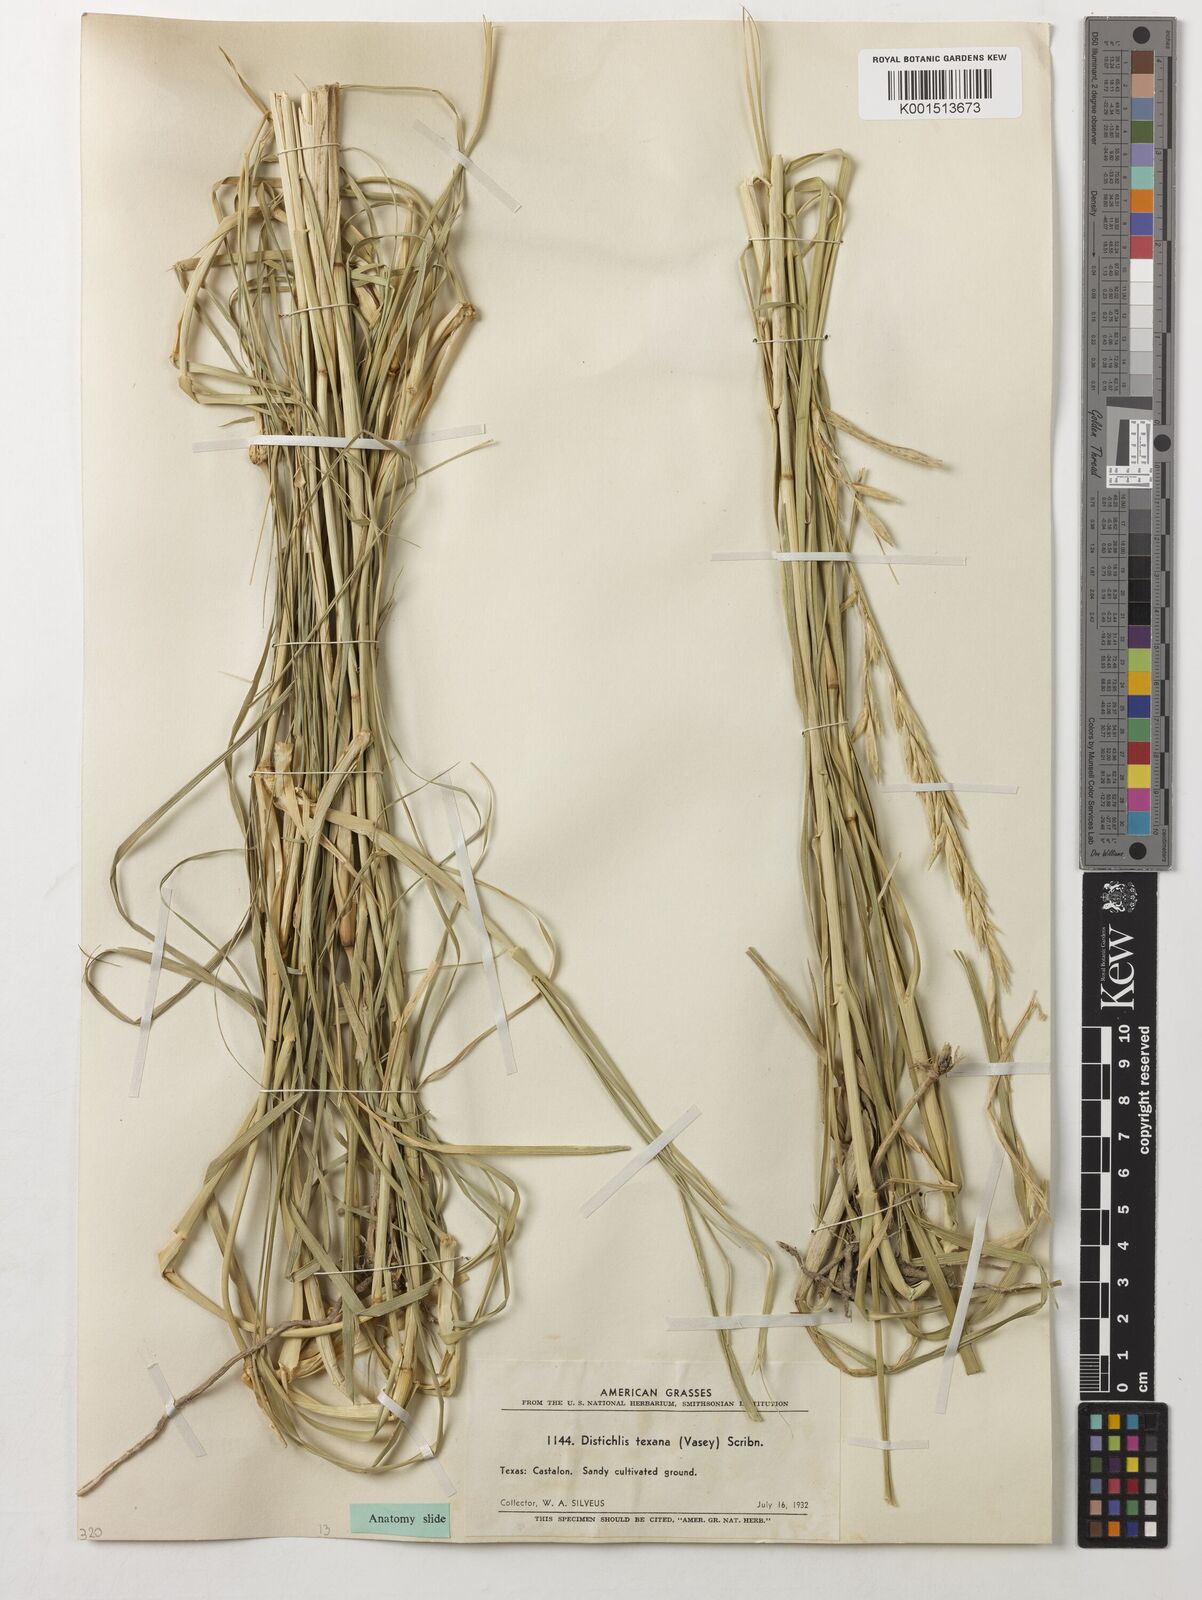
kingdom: Plantae
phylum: Tracheophyta
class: Liliopsida
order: Poales
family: Poaceae
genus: Allolepis
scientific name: Allolepis texana
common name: False salt grass
